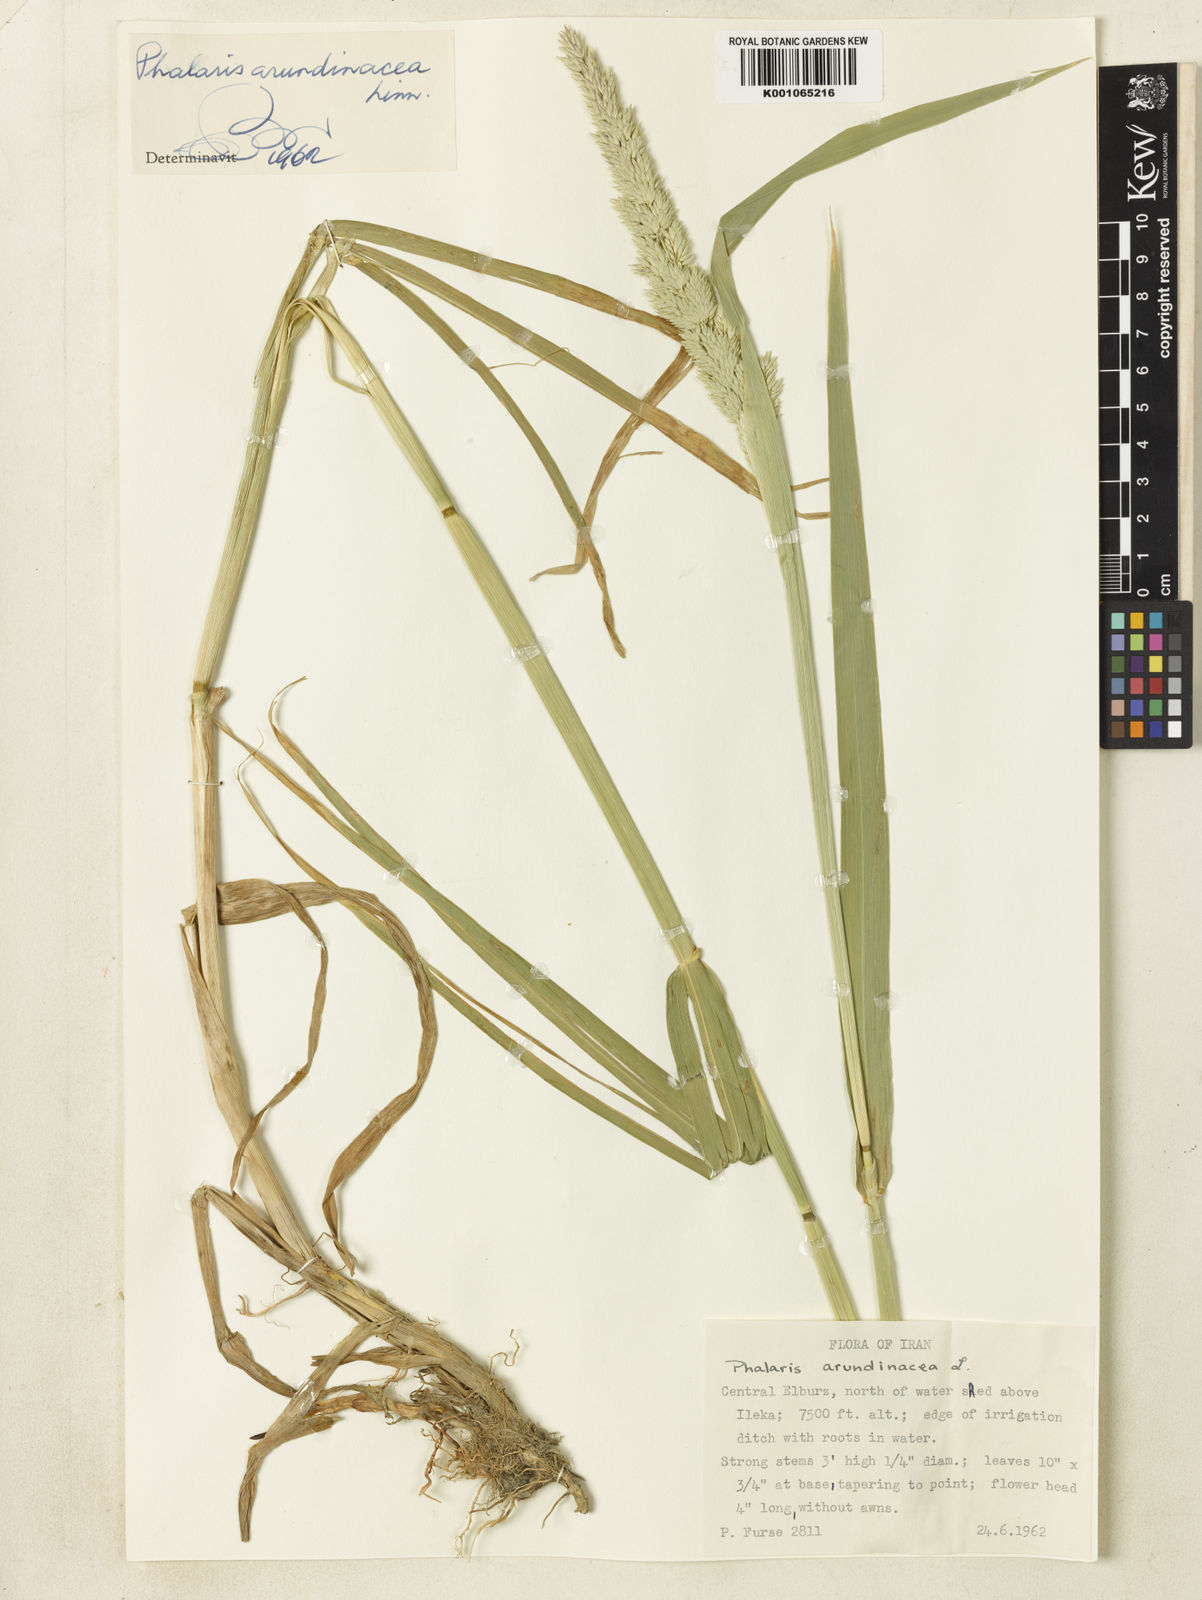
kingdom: Plantae
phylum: Tracheophyta
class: Liliopsida
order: Poales
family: Poaceae
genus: Phalaris
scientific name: Phalaris arundinacea
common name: Reed canary-grass
